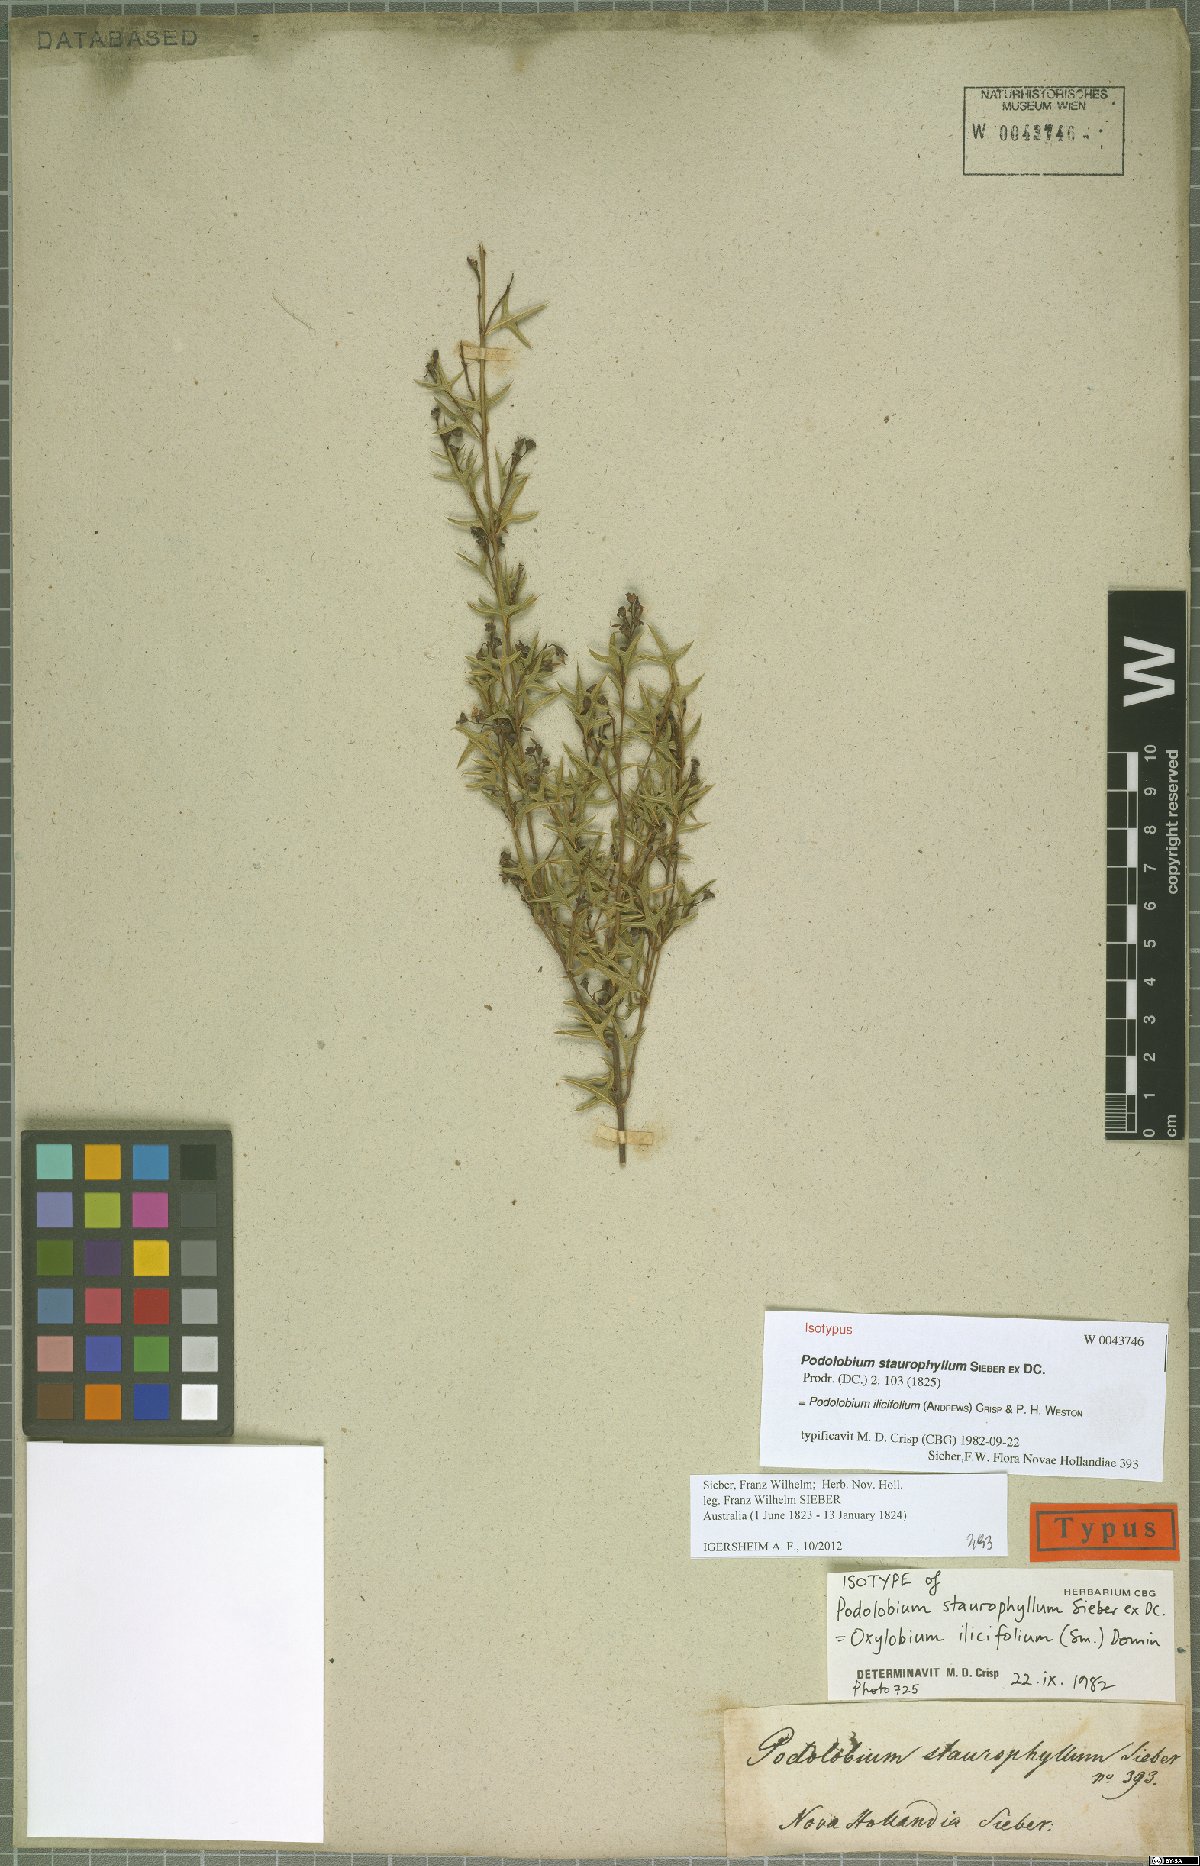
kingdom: Plantae
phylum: Tracheophyta
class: Magnoliopsida
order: Fabales
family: Fabaceae
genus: Podolobium
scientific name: Podolobium ilicifolium
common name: Native holly
